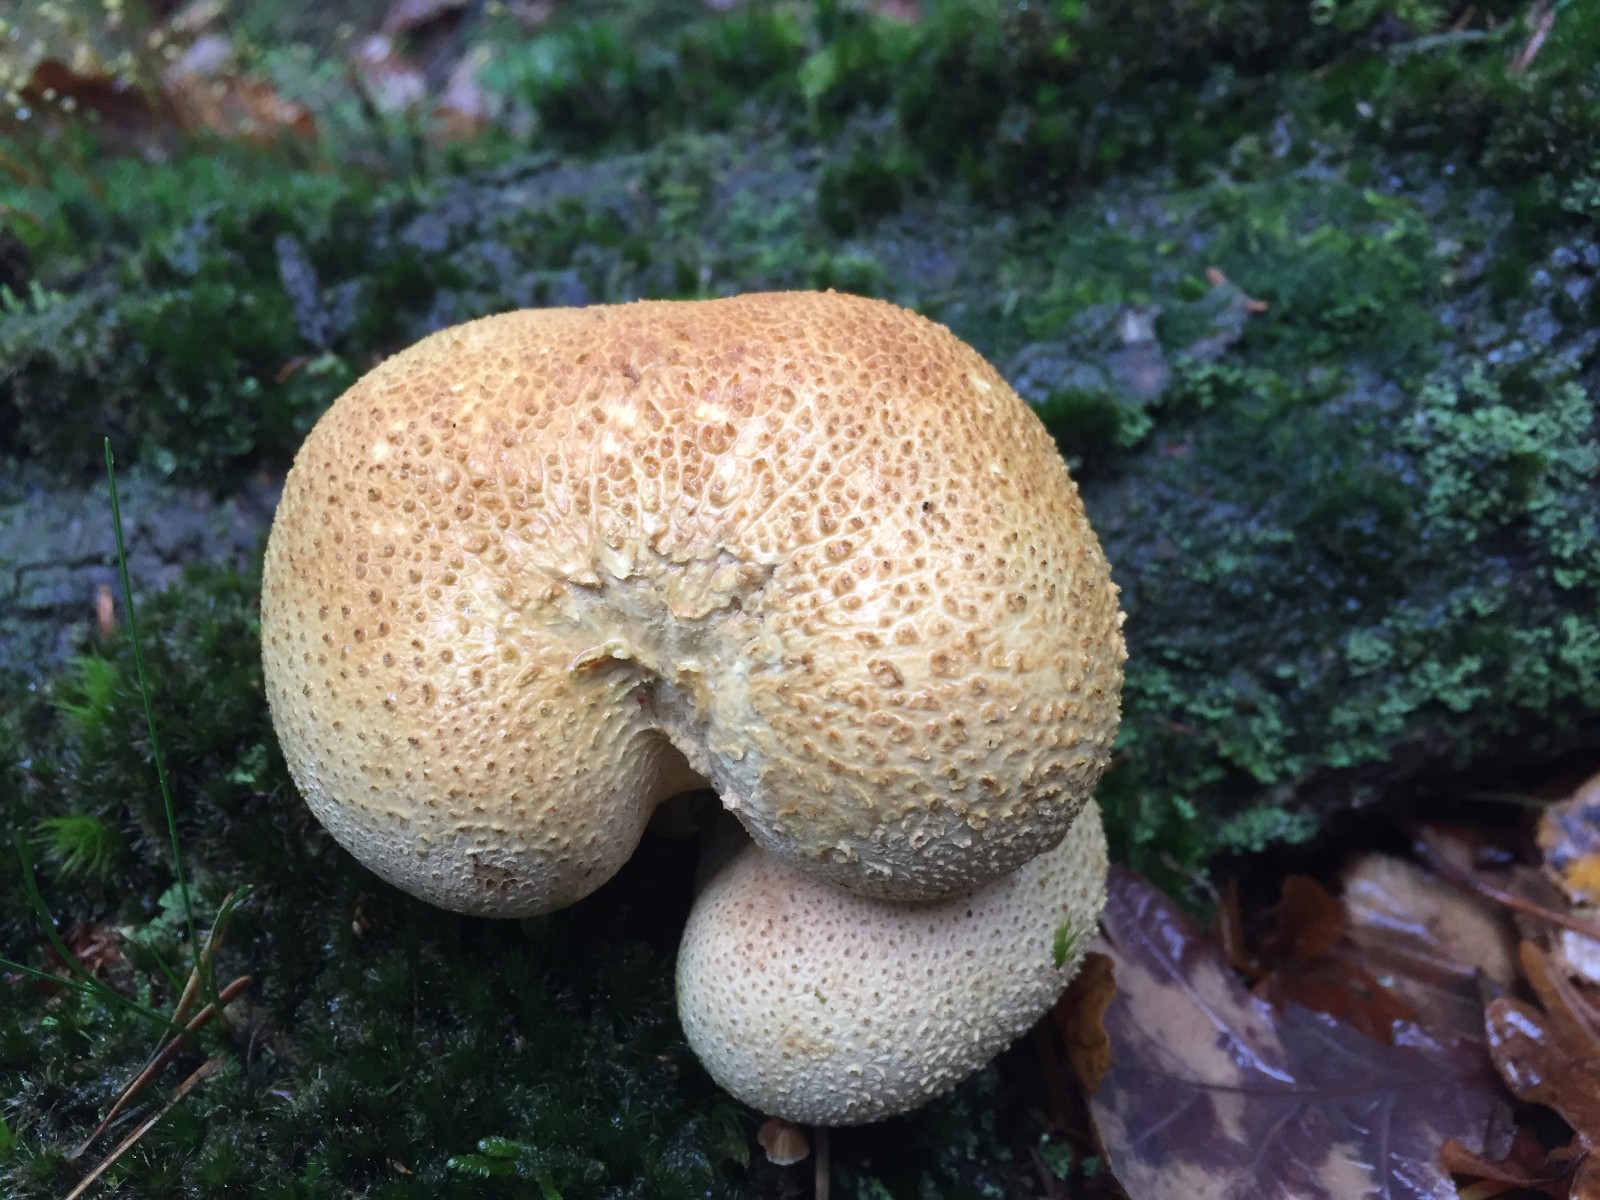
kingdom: Fungi
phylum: Basidiomycota
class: Agaricomycetes
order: Boletales
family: Sclerodermataceae
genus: Scleroderma
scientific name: Scleroderma citrinum
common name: almindelig bruskbold
